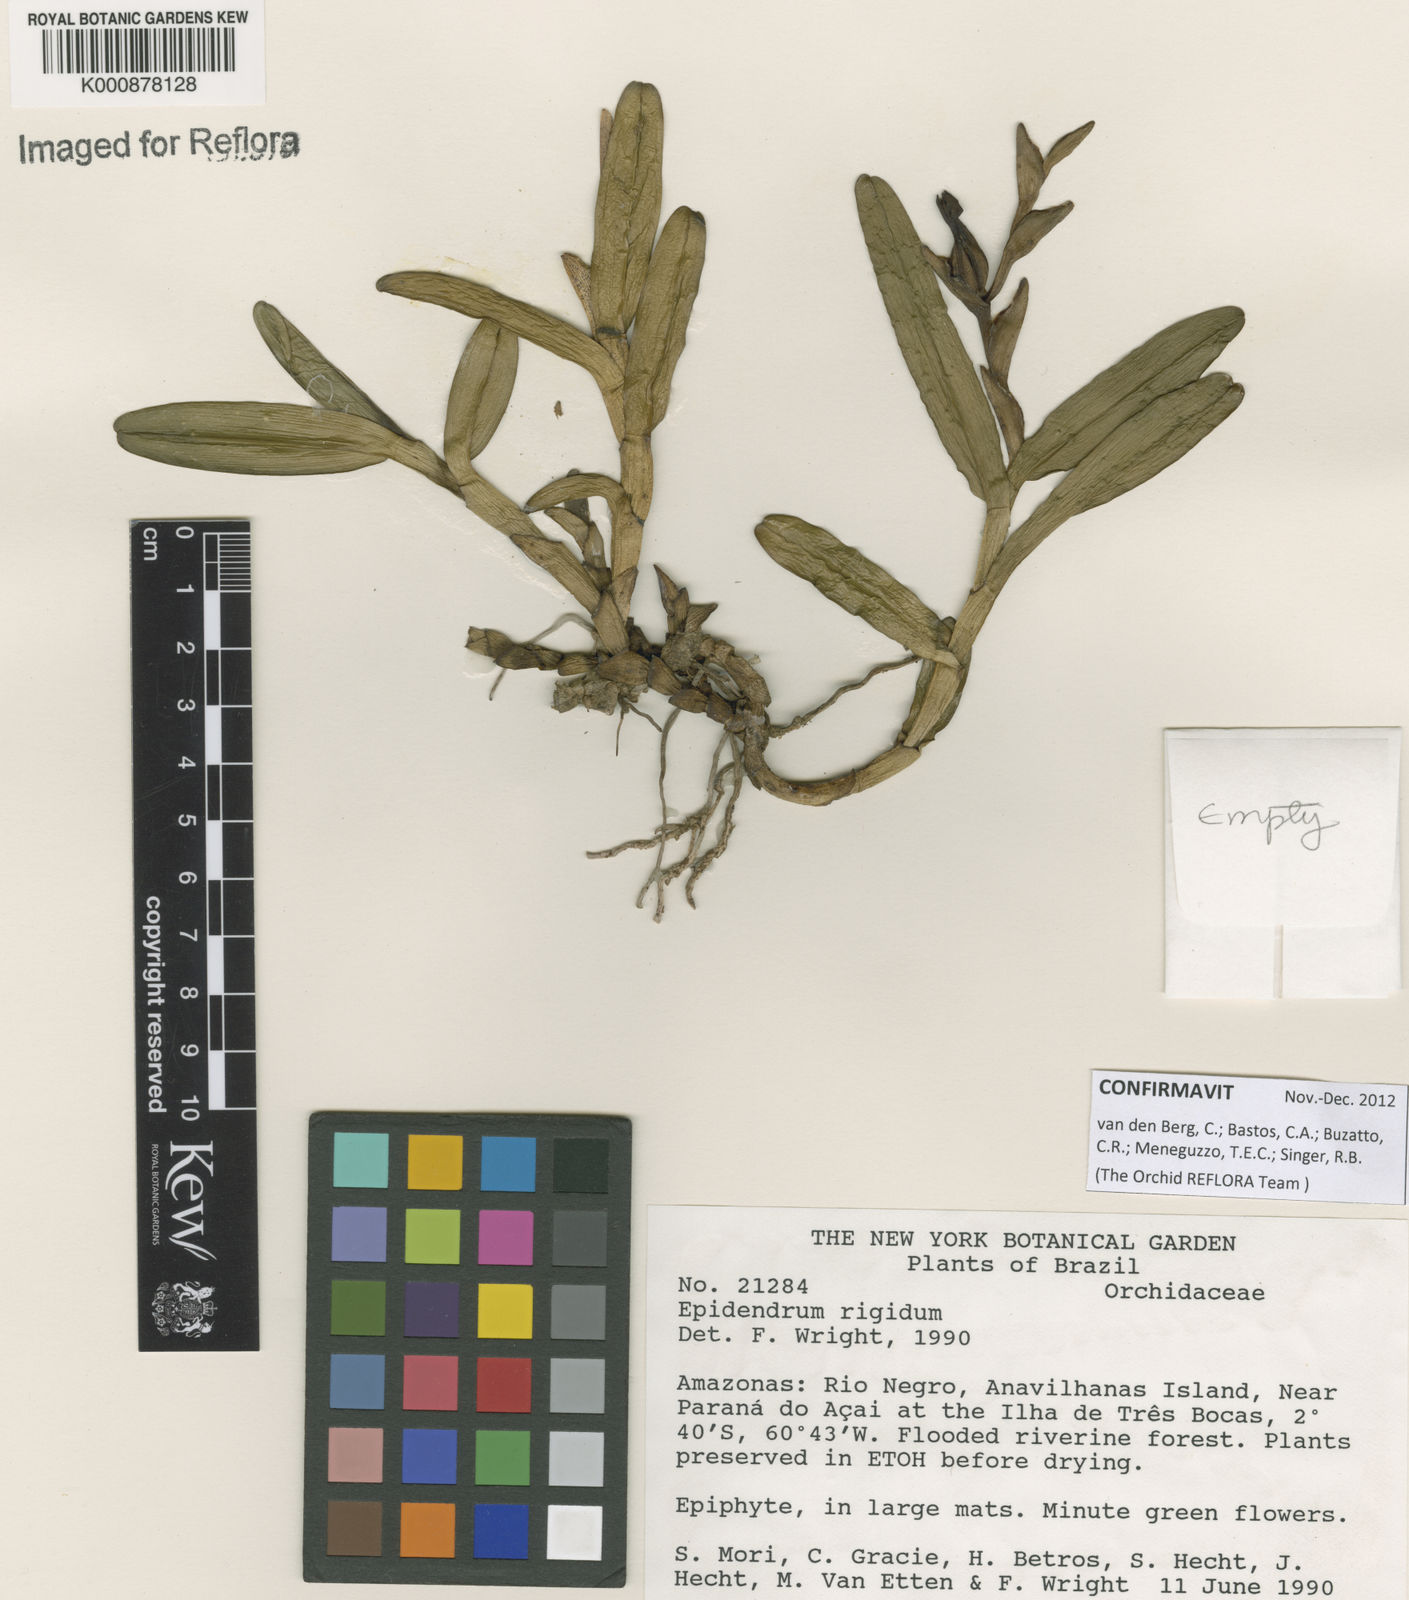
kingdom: Plantae
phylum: Tracheophyta
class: Liliopsida
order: Asparagales
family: Orchidaceae
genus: Epidendrum
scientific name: Epidendrum rigidum
